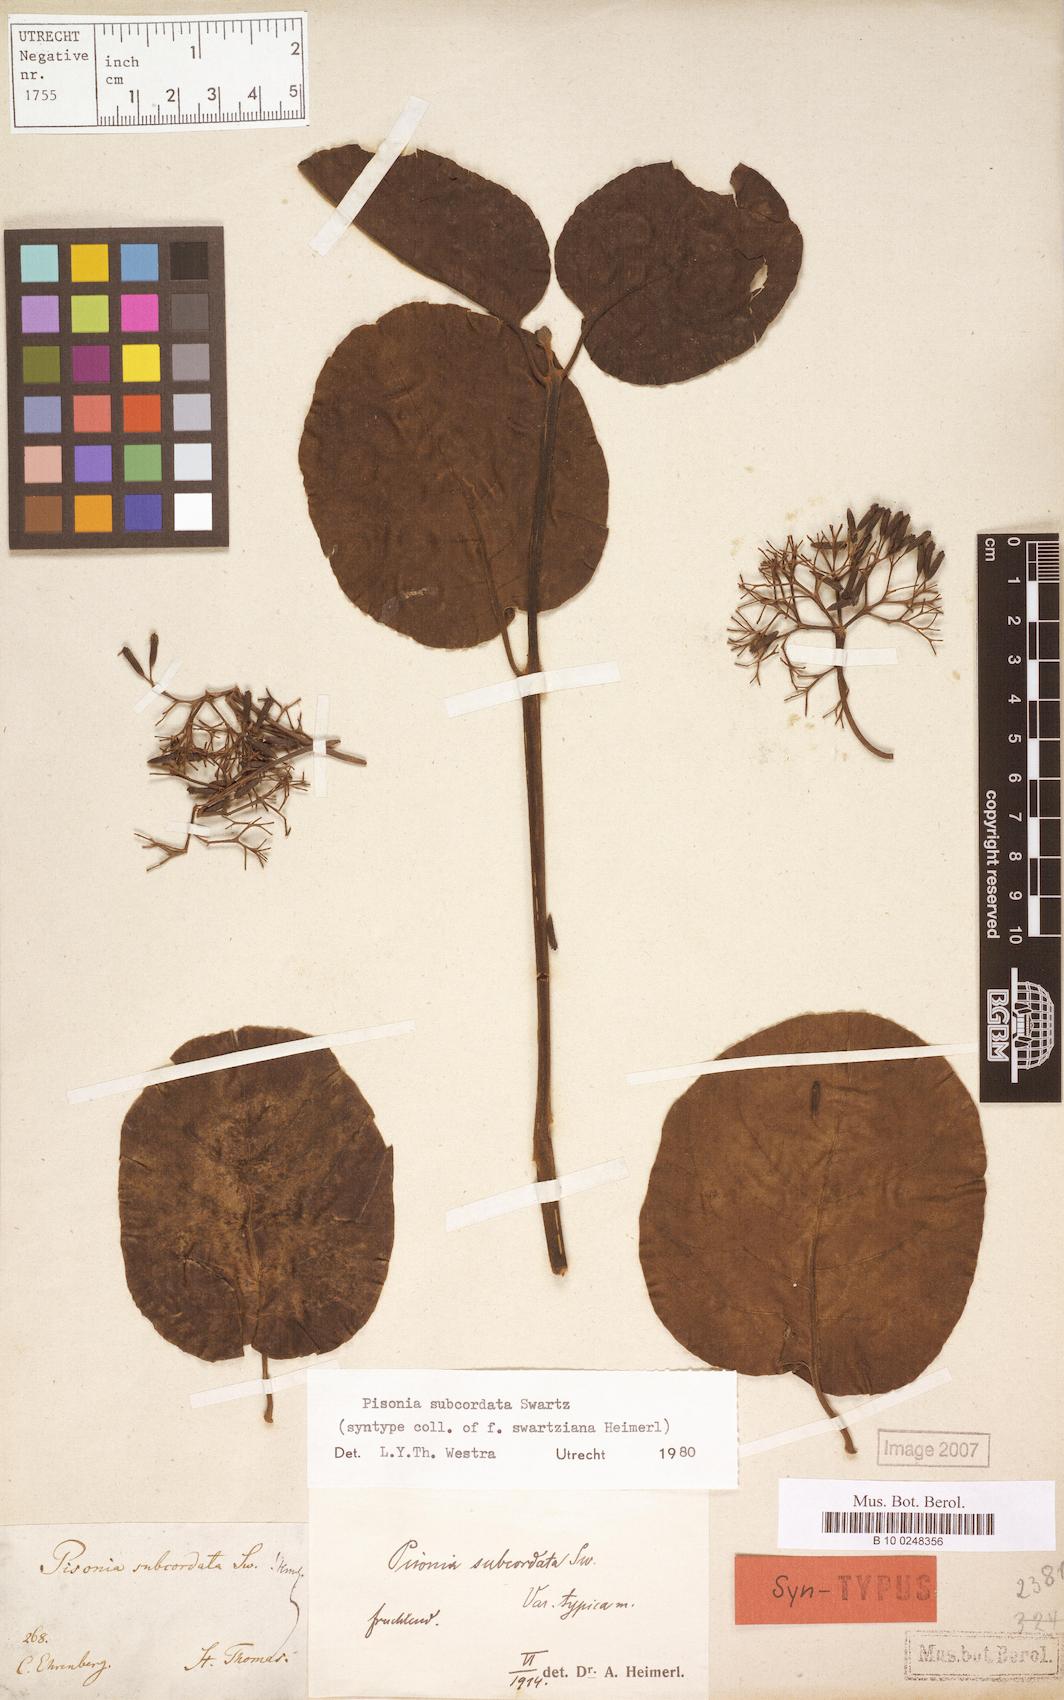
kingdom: Plantae
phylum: Tracheophyta
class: Magnoliopsida
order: Caryophyllales
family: Nyctaginaceae
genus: Pisonia
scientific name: Pisonia subcordata
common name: Mampoo
